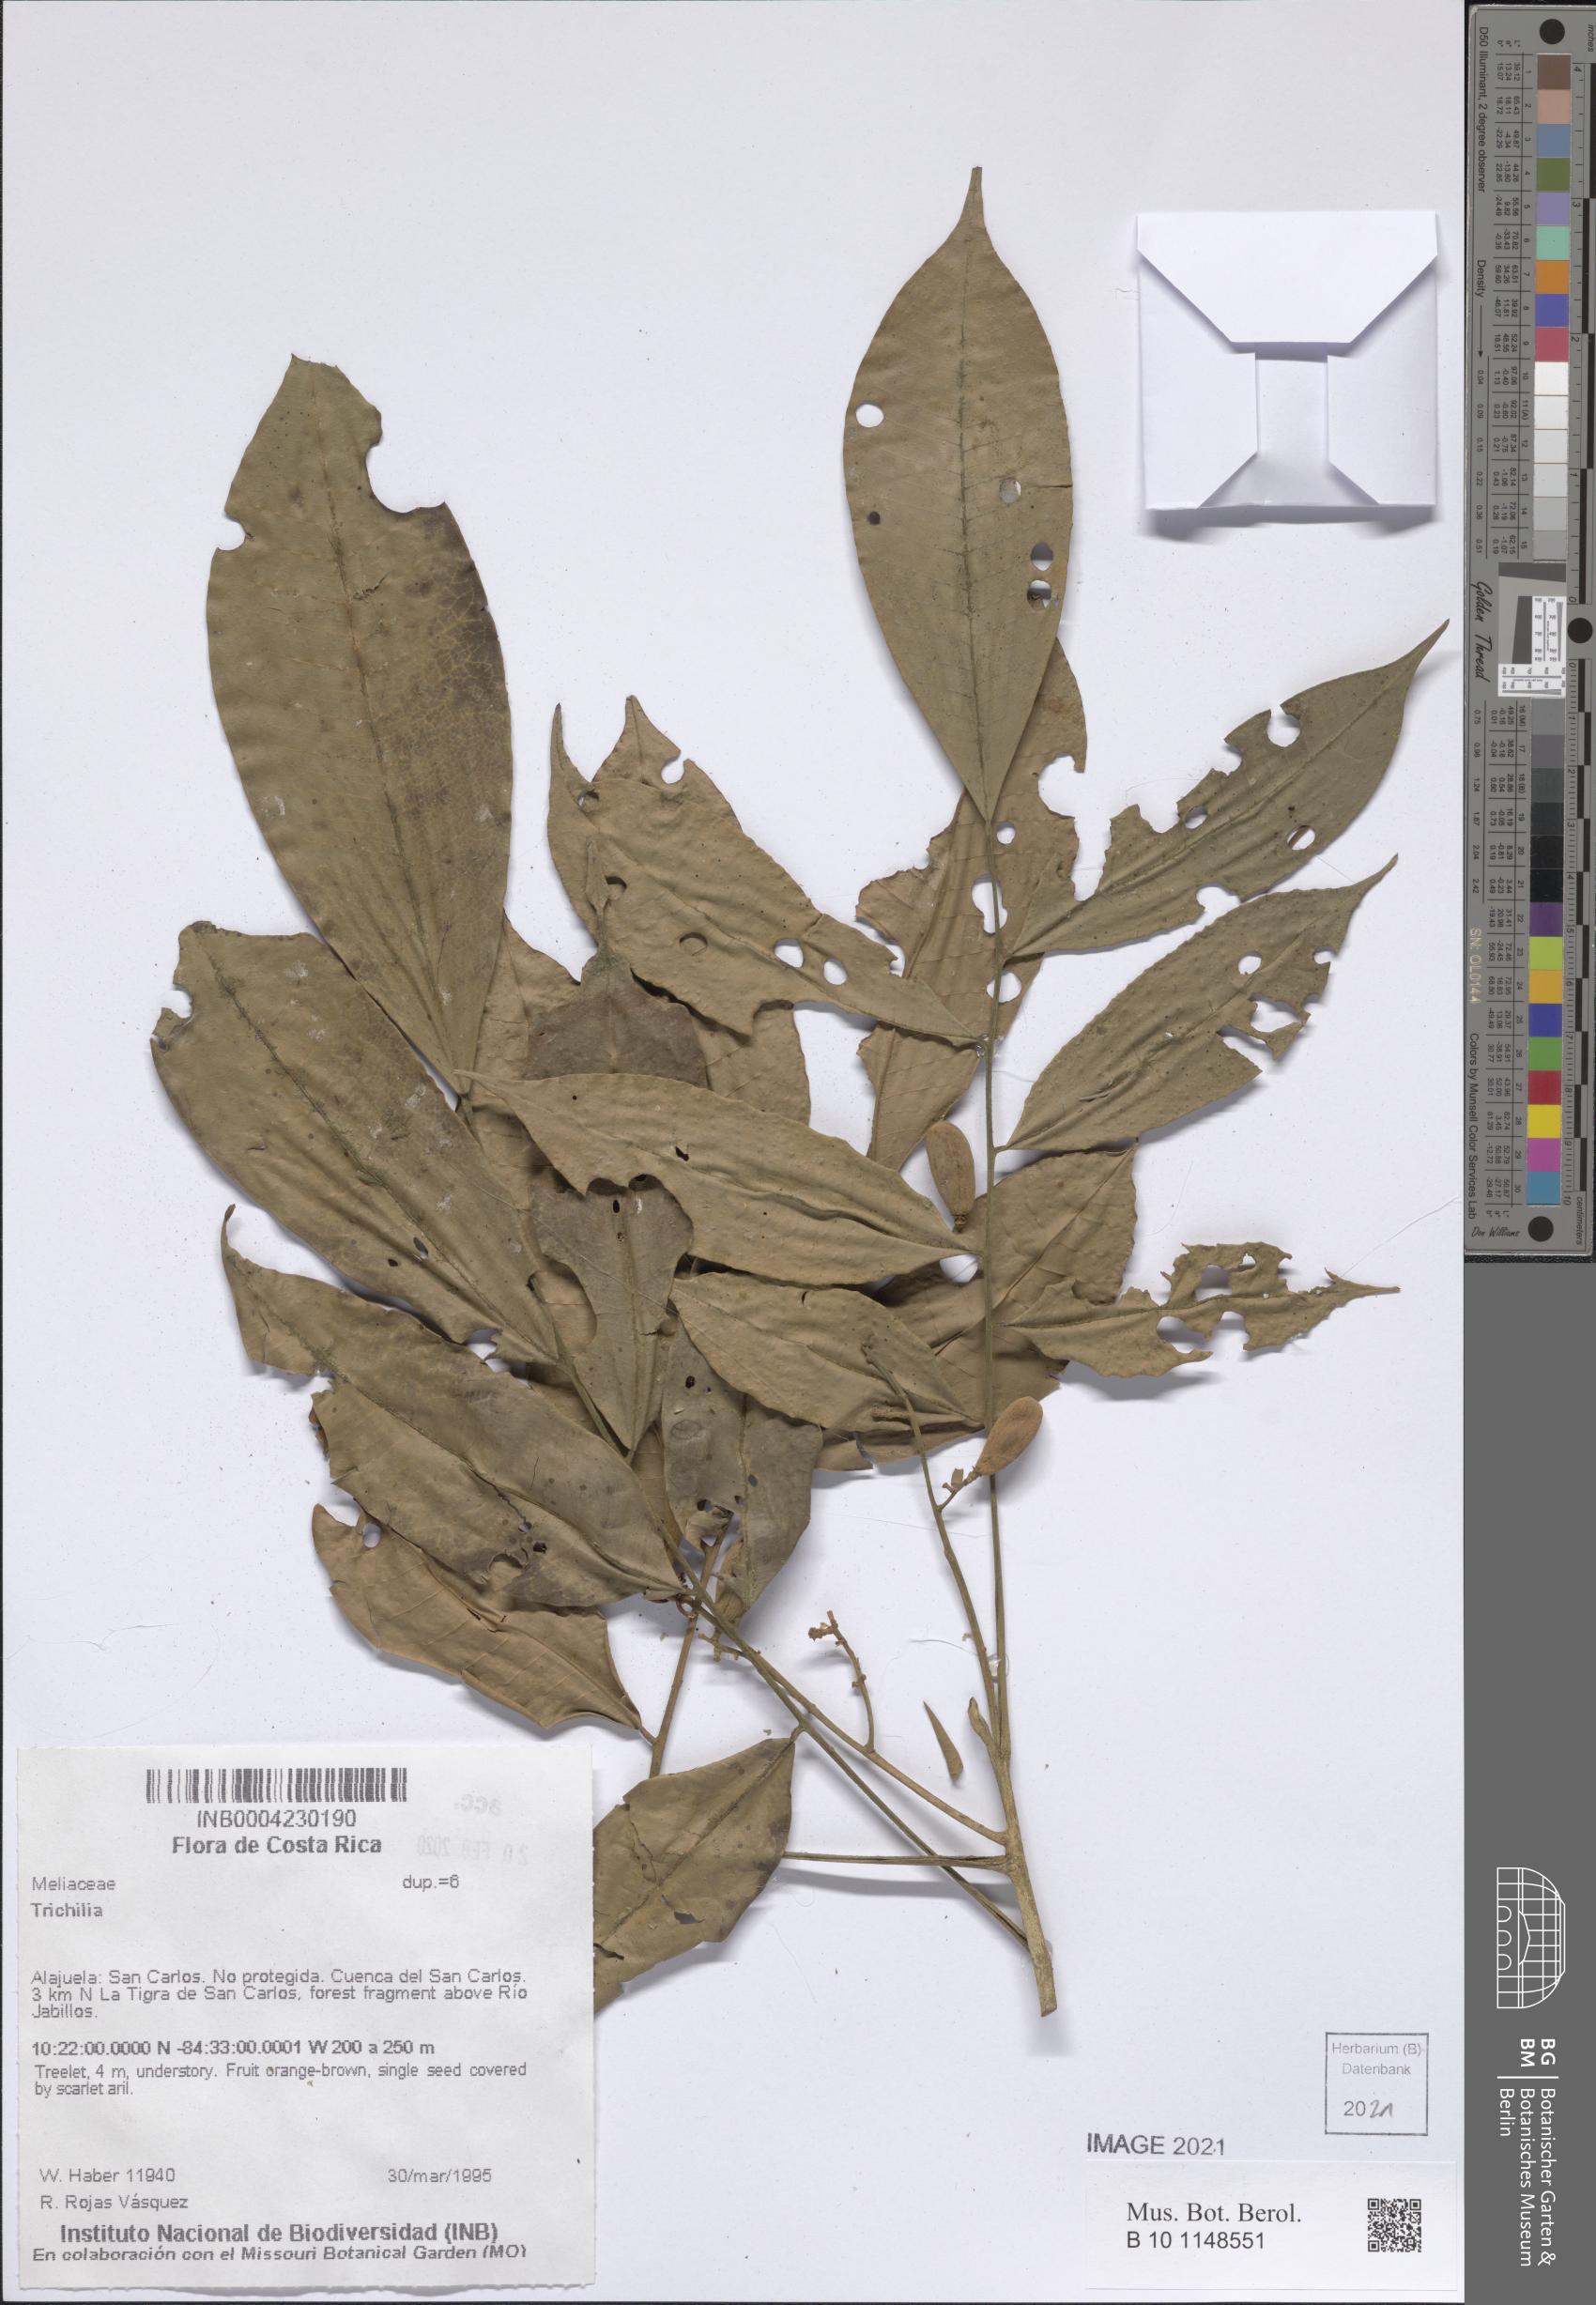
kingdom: Plantae
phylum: Tracheophyta
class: Magnoliopsida
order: Sapindales
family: Meliaceae
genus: Trichilia
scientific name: Trichilia
